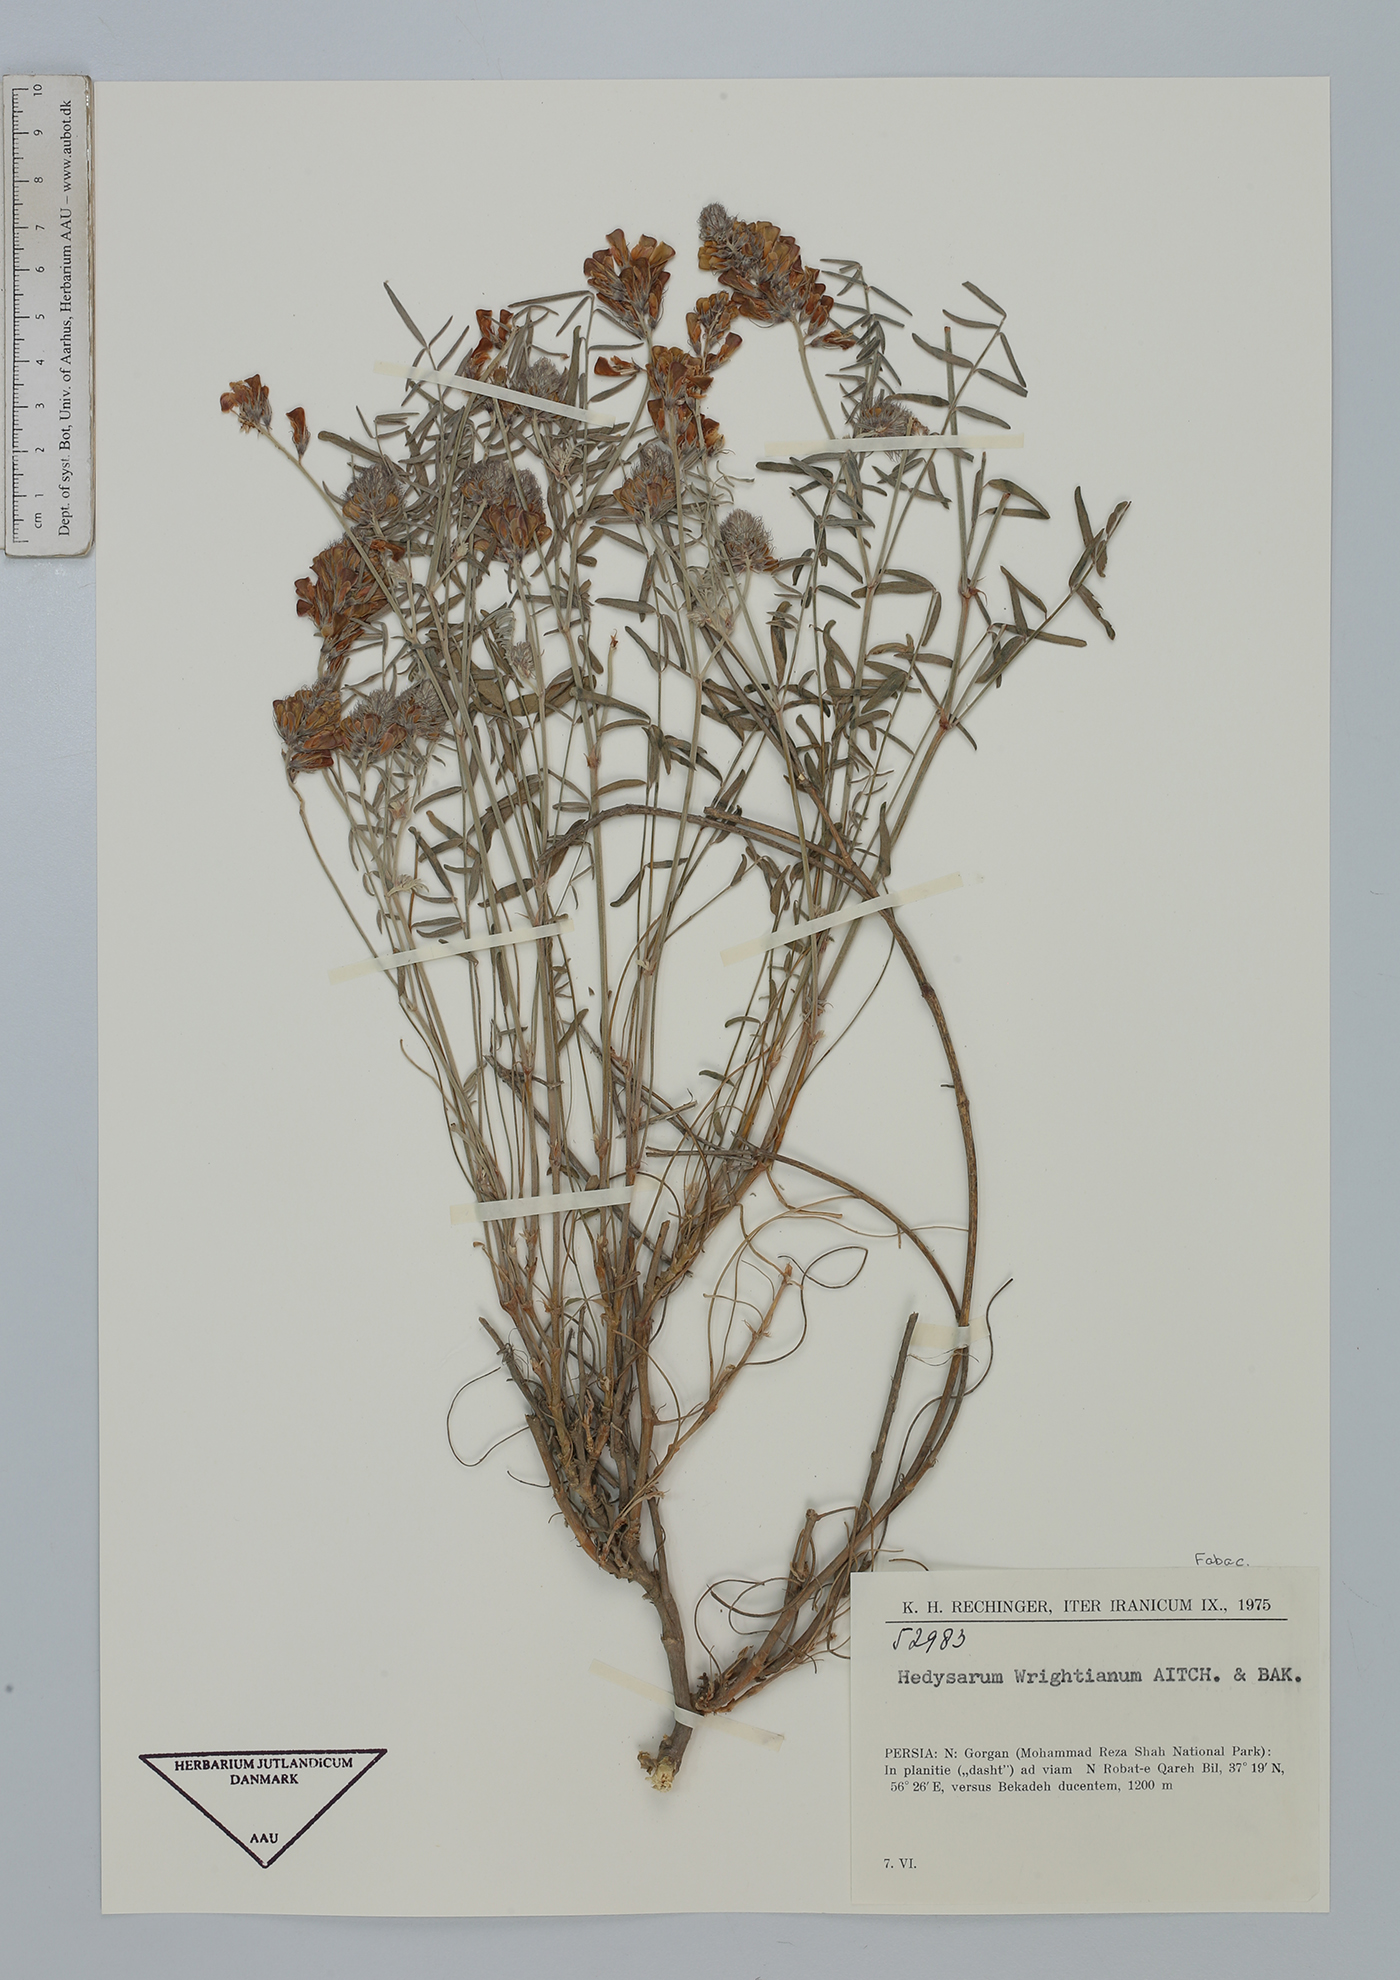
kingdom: Plantae
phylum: Tracheophyta
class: Magnoliopsida
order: Fabales
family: Fabaceae
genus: Hedysarum
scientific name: Hedysarum micropterum
